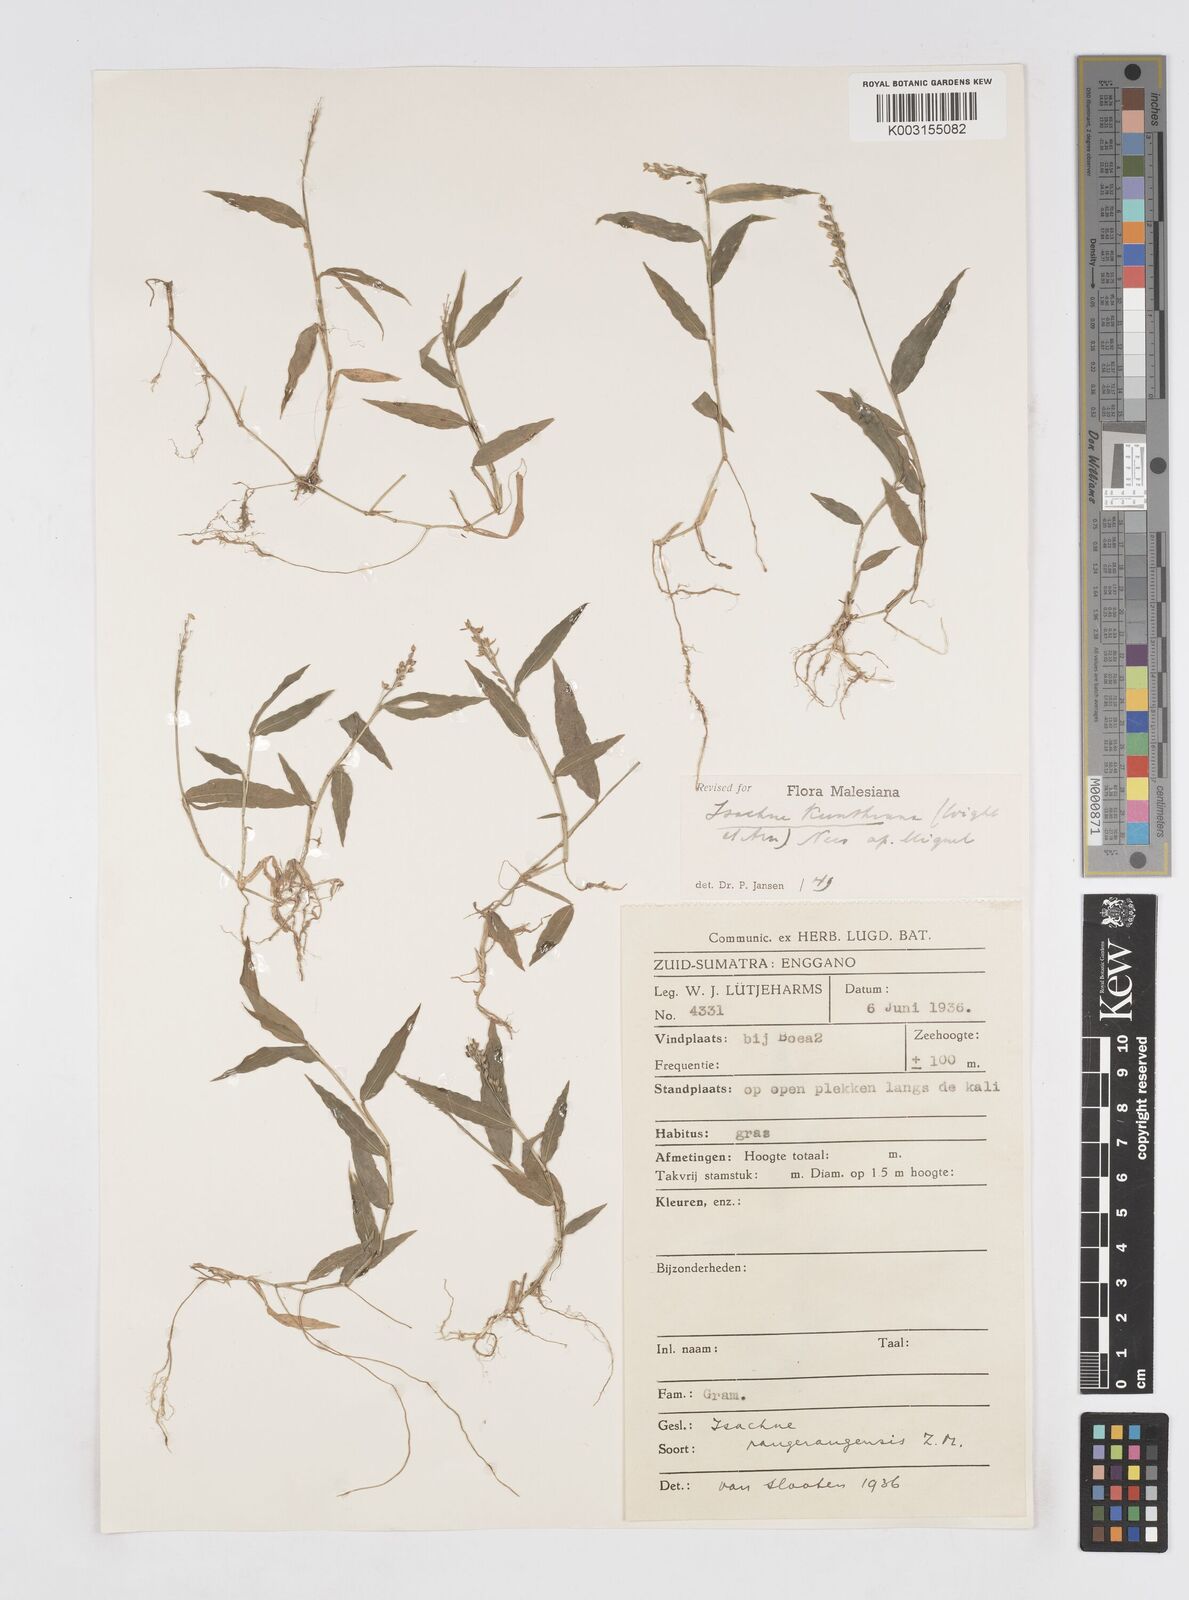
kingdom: Plantae
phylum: Tracheophyta
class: Liliopsida
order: Poales
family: Poaceae
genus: Isachne
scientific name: Isachne schmidtii
